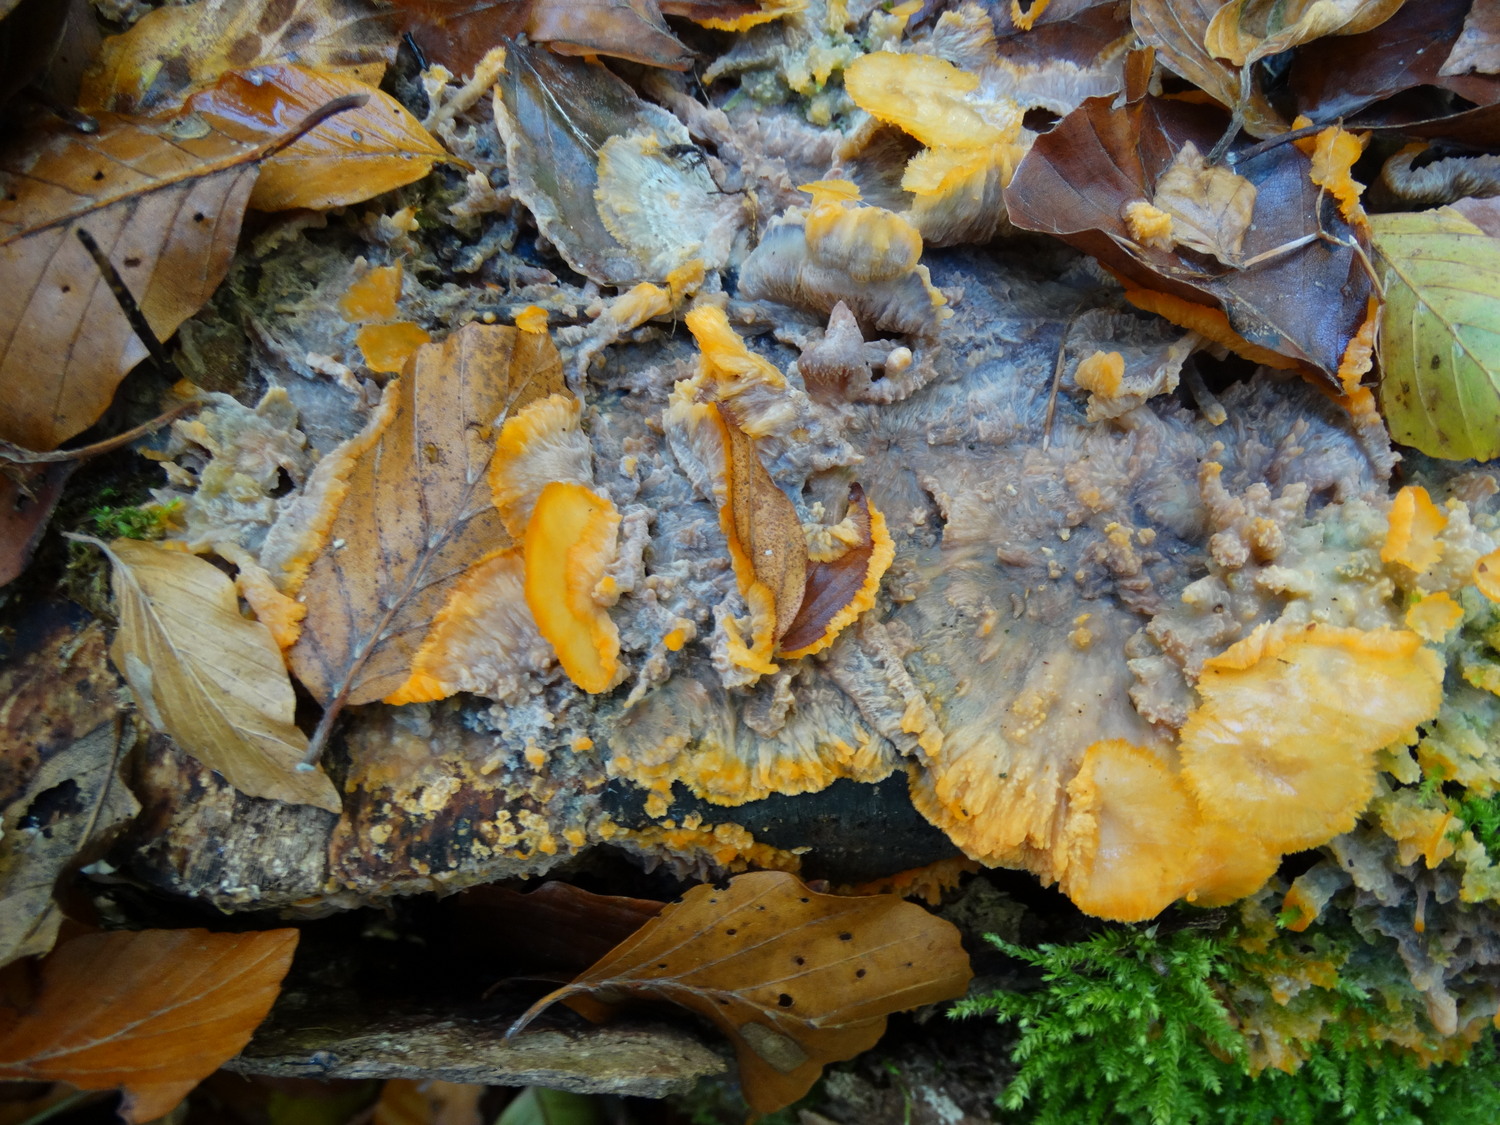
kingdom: Fungi
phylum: Basidiomycota
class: Agaricomycetes
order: Polyporales
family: Meruliaceae
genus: Phlebia
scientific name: Phlebia radiata
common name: stråle-åresvamp
